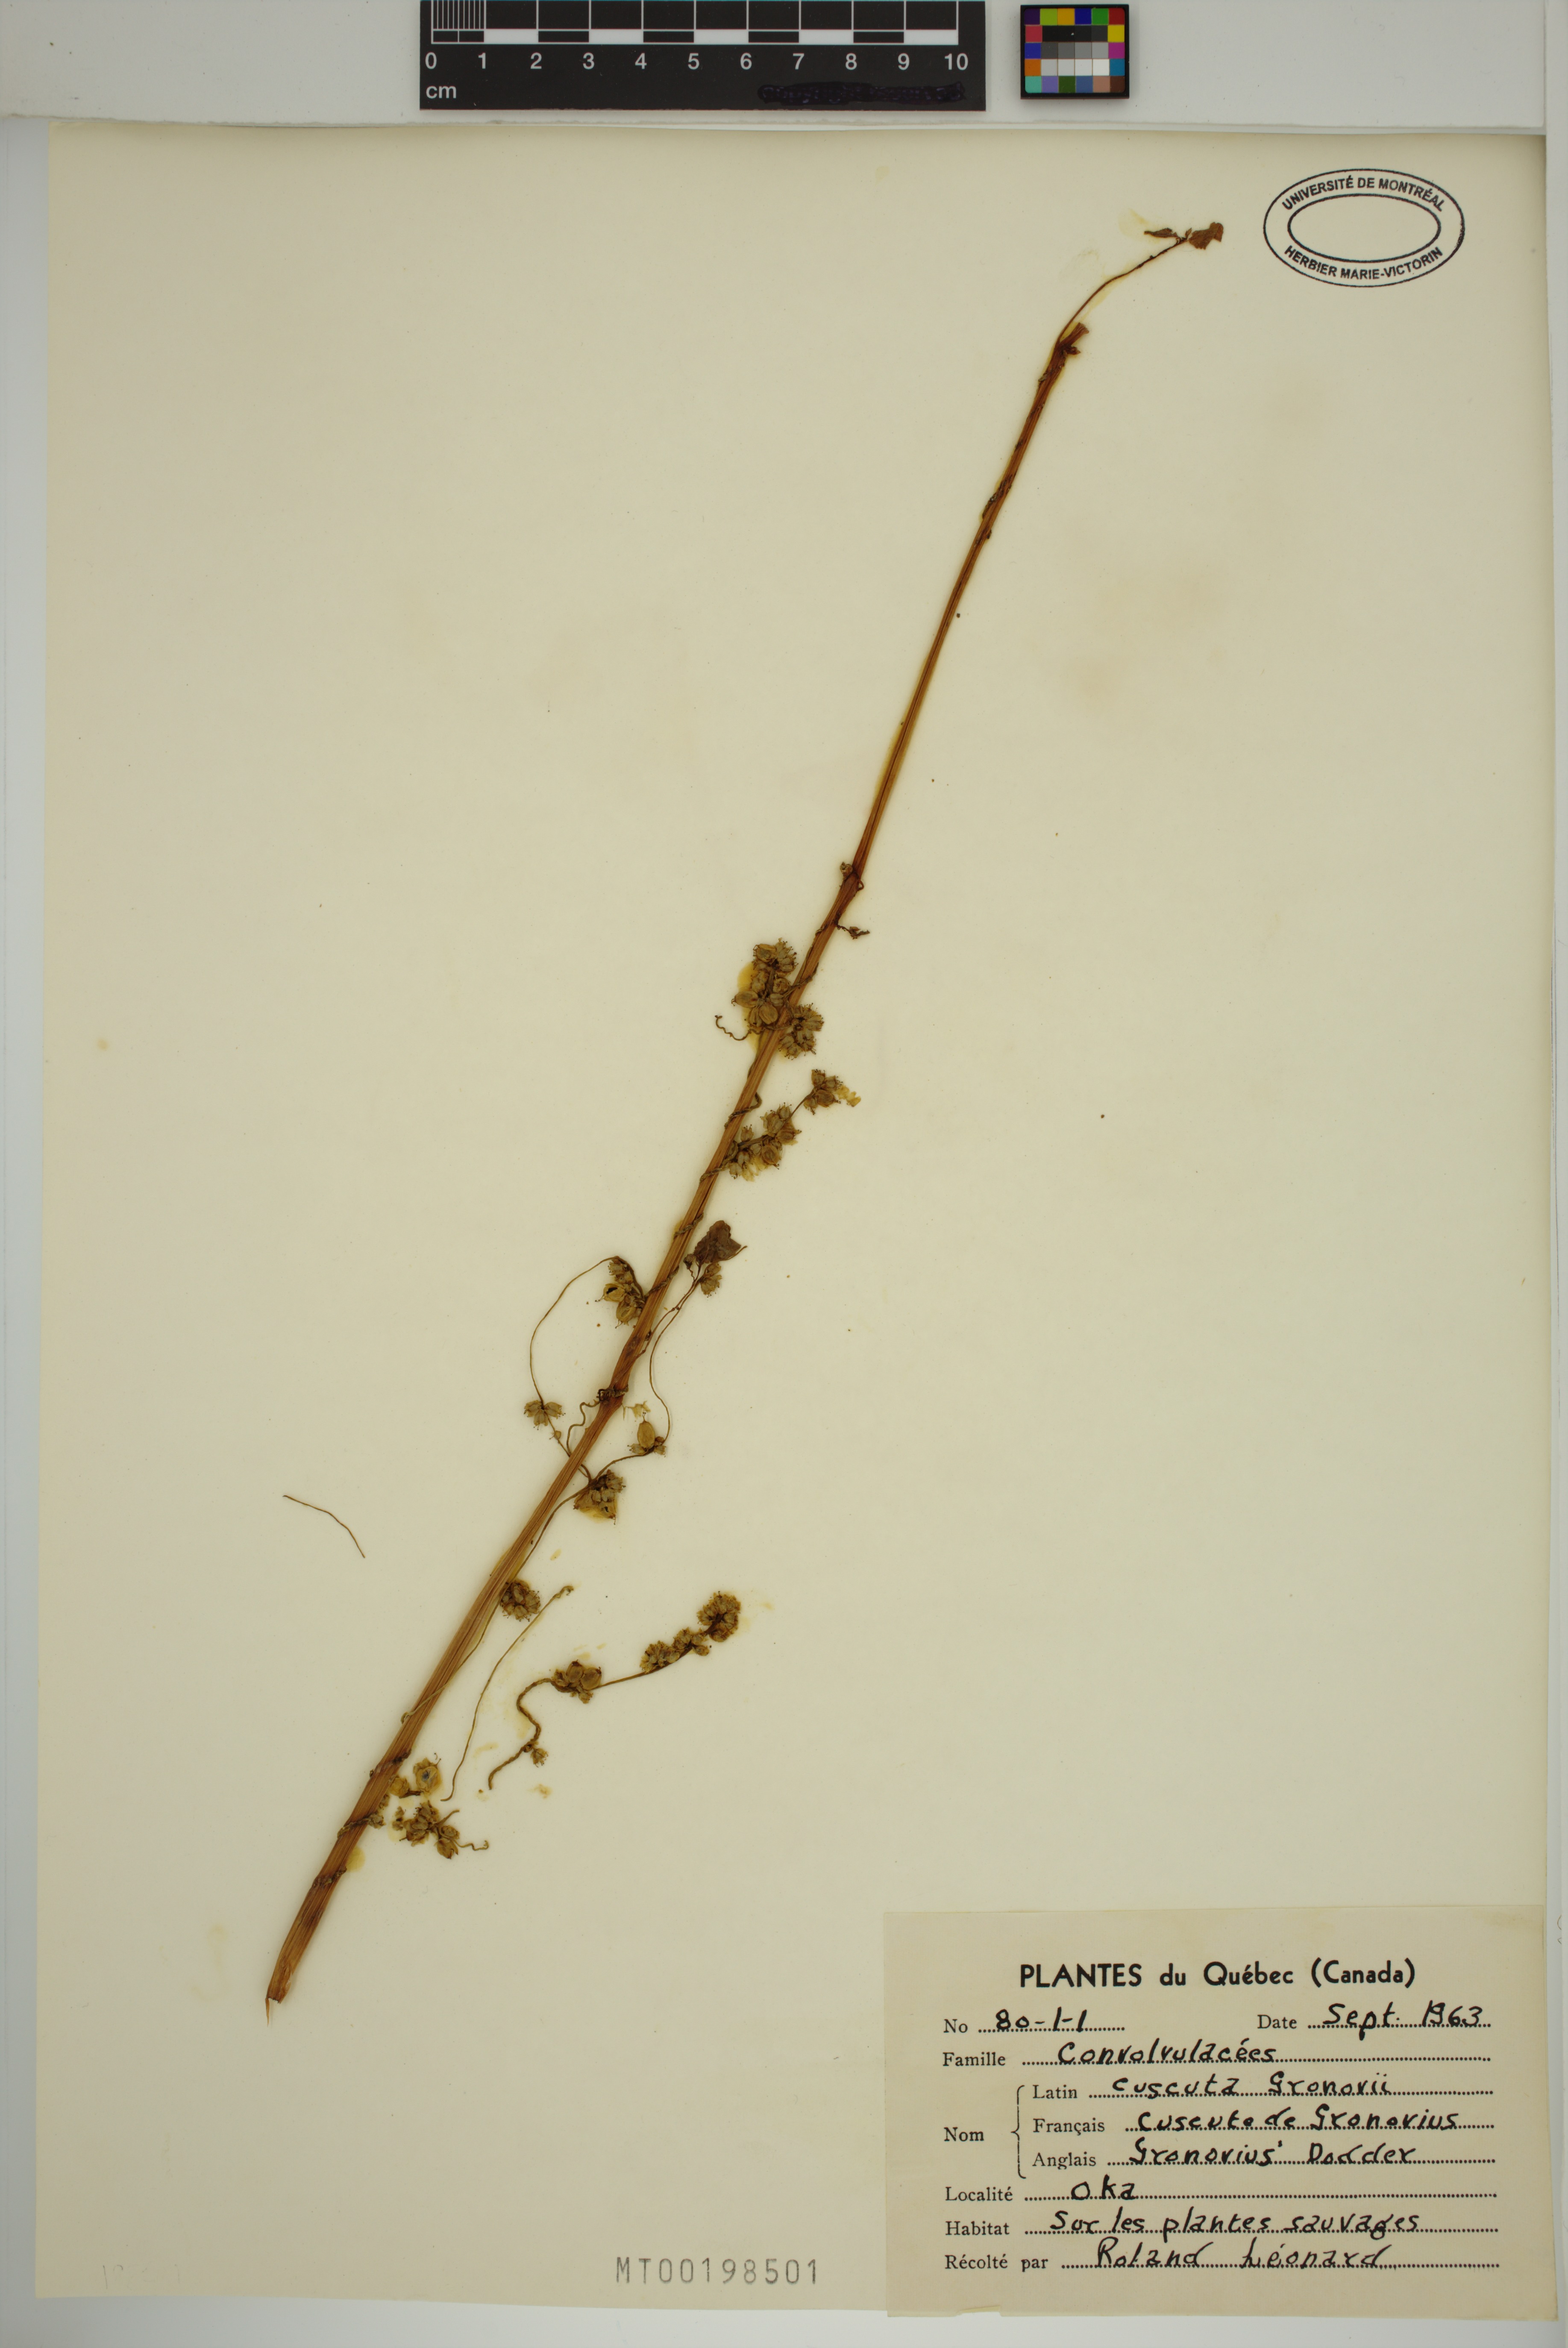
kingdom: Plantae
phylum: Tracheophyta
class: Magnoliopsida
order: Solanales
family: Convolvulaceae
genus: Cuscuta
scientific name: Cuscuta gronovii
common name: Common dodder
